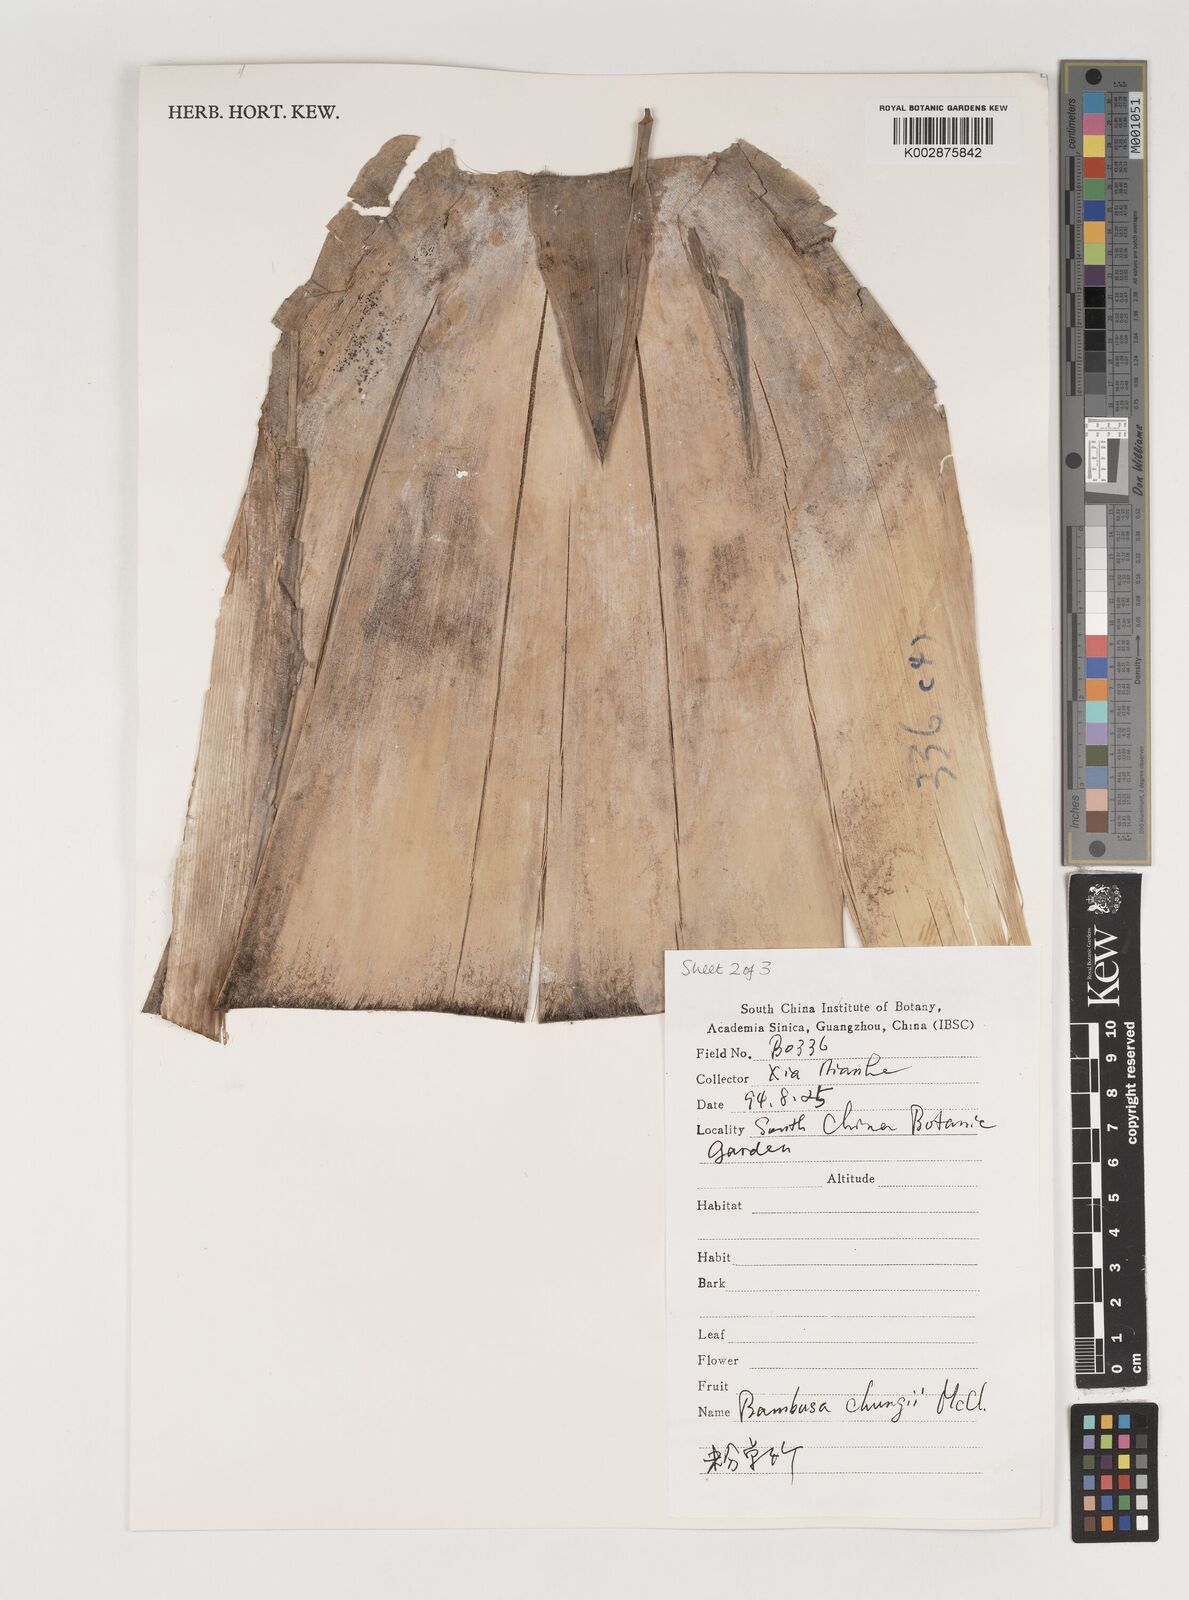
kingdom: Plantae
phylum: Tracheophyta
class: Liliopsida
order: Poales
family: Poaceae
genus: Bambusa
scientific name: Bambusa chungii
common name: White-powder bamboo
